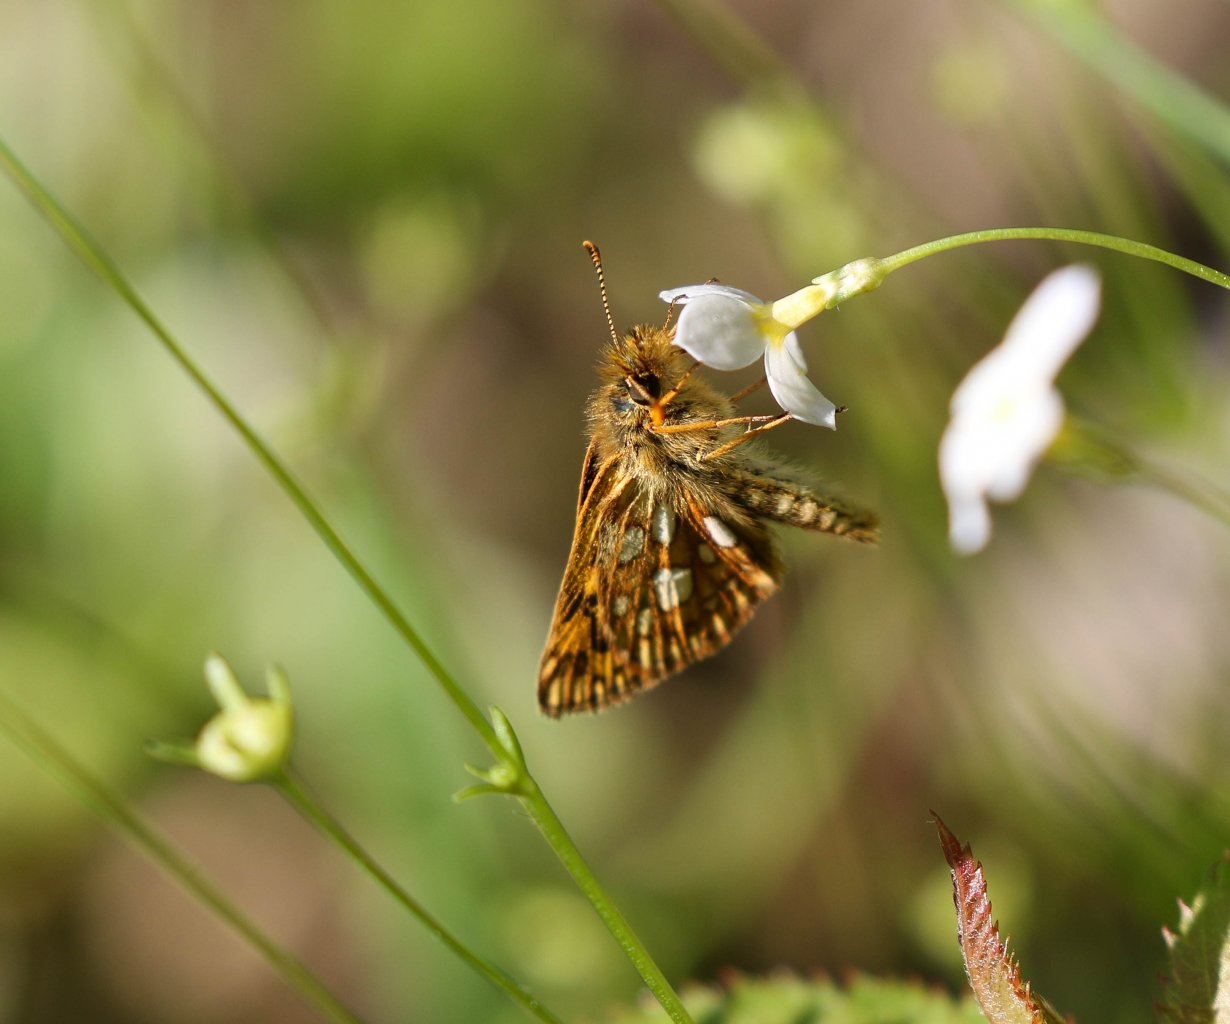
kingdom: Animalia
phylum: Arthropoda
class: Insecta
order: Lepidoptera
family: Hesperiidae
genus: Carterocephalus
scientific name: Carterocephalus palaemon
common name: Chequered Skipper
